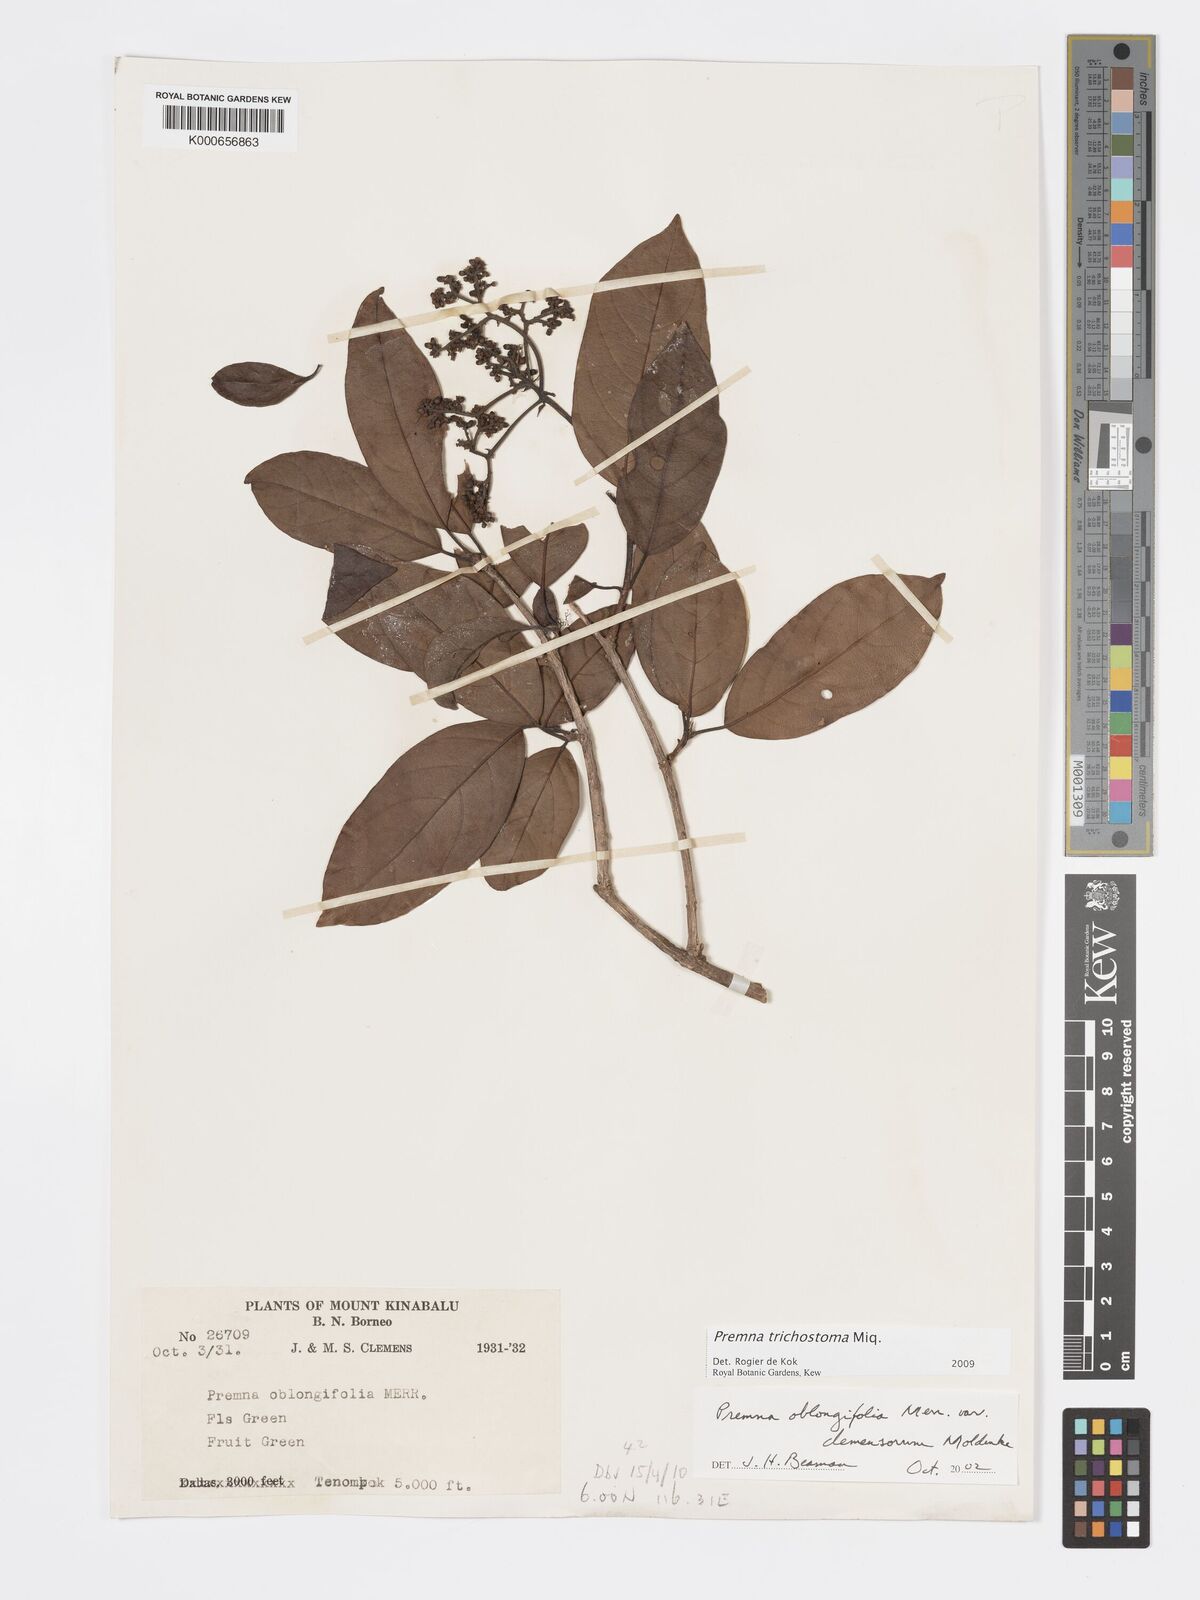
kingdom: Plantae
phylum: Tracheophyta
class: Magnoliopsida
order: Lamiales
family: Lamiaceae
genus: Premna
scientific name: Premna trichostoma
